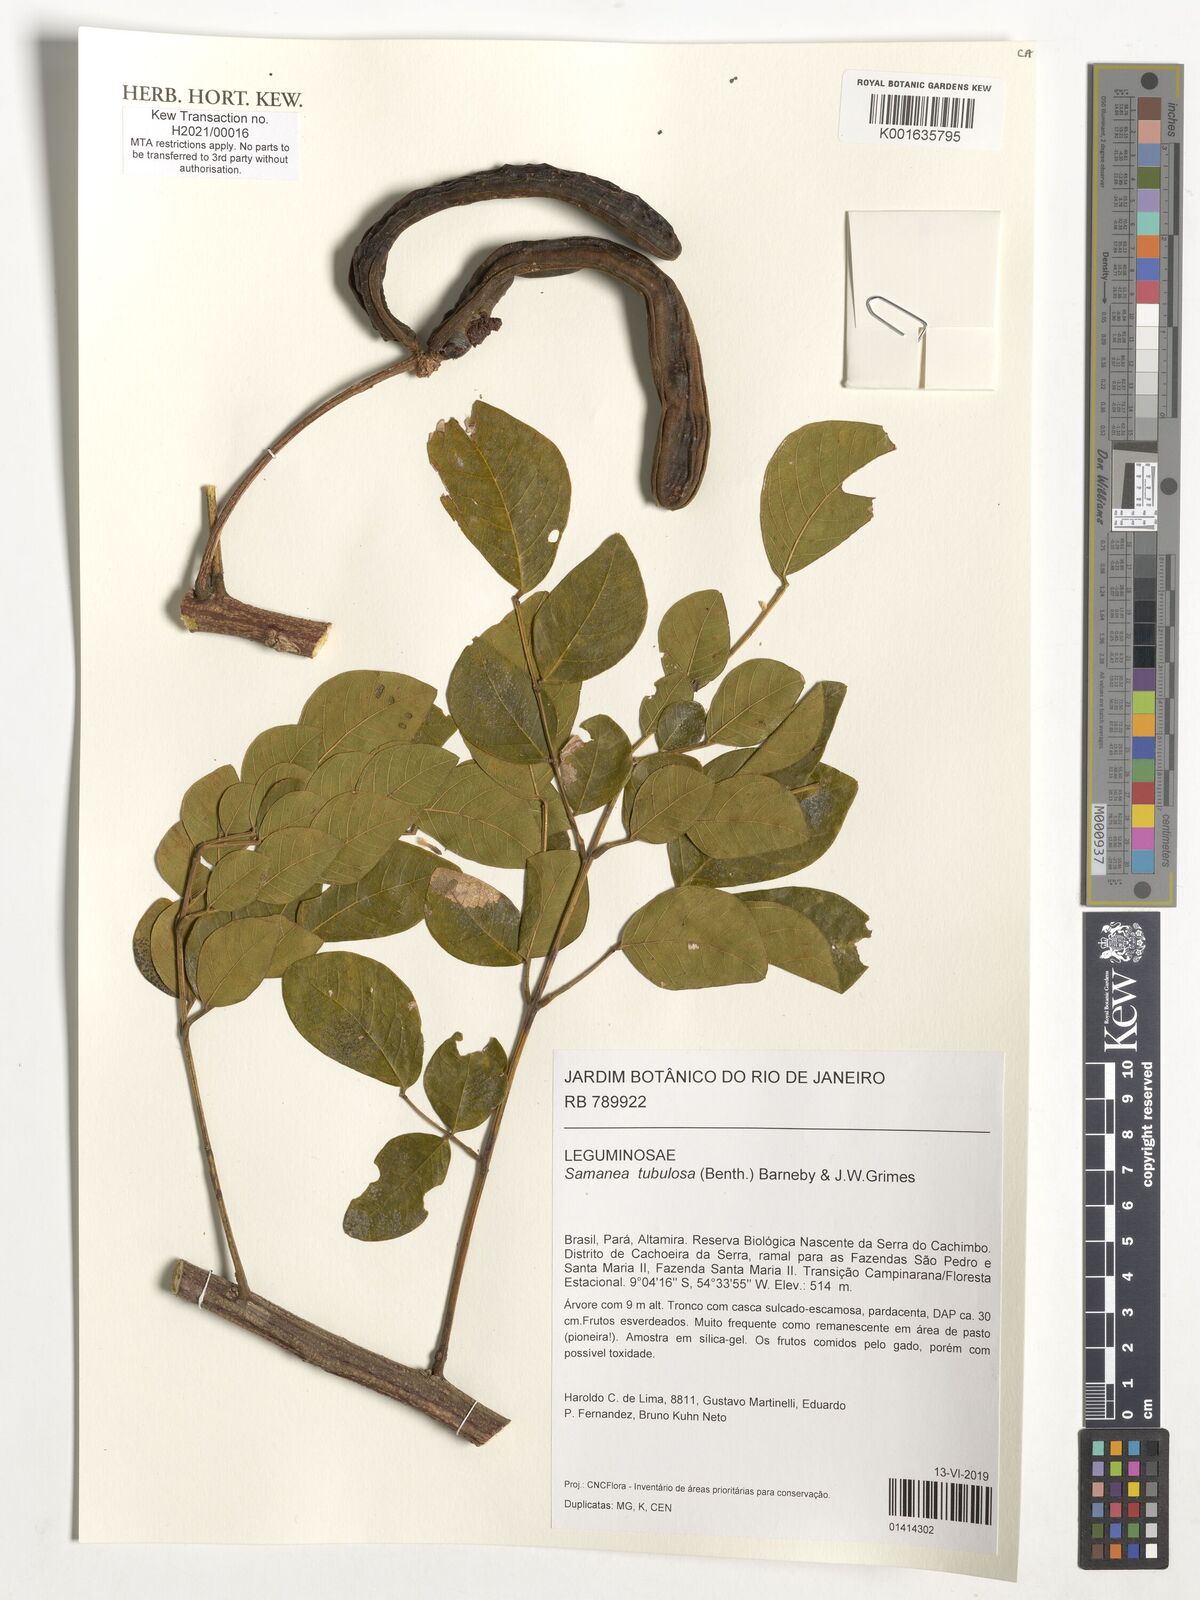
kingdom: Plantae
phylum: Tracheophyta
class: Magnoliopsida
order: Fabales
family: Fabaceae
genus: Samanea
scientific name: Samanea tubulosa
